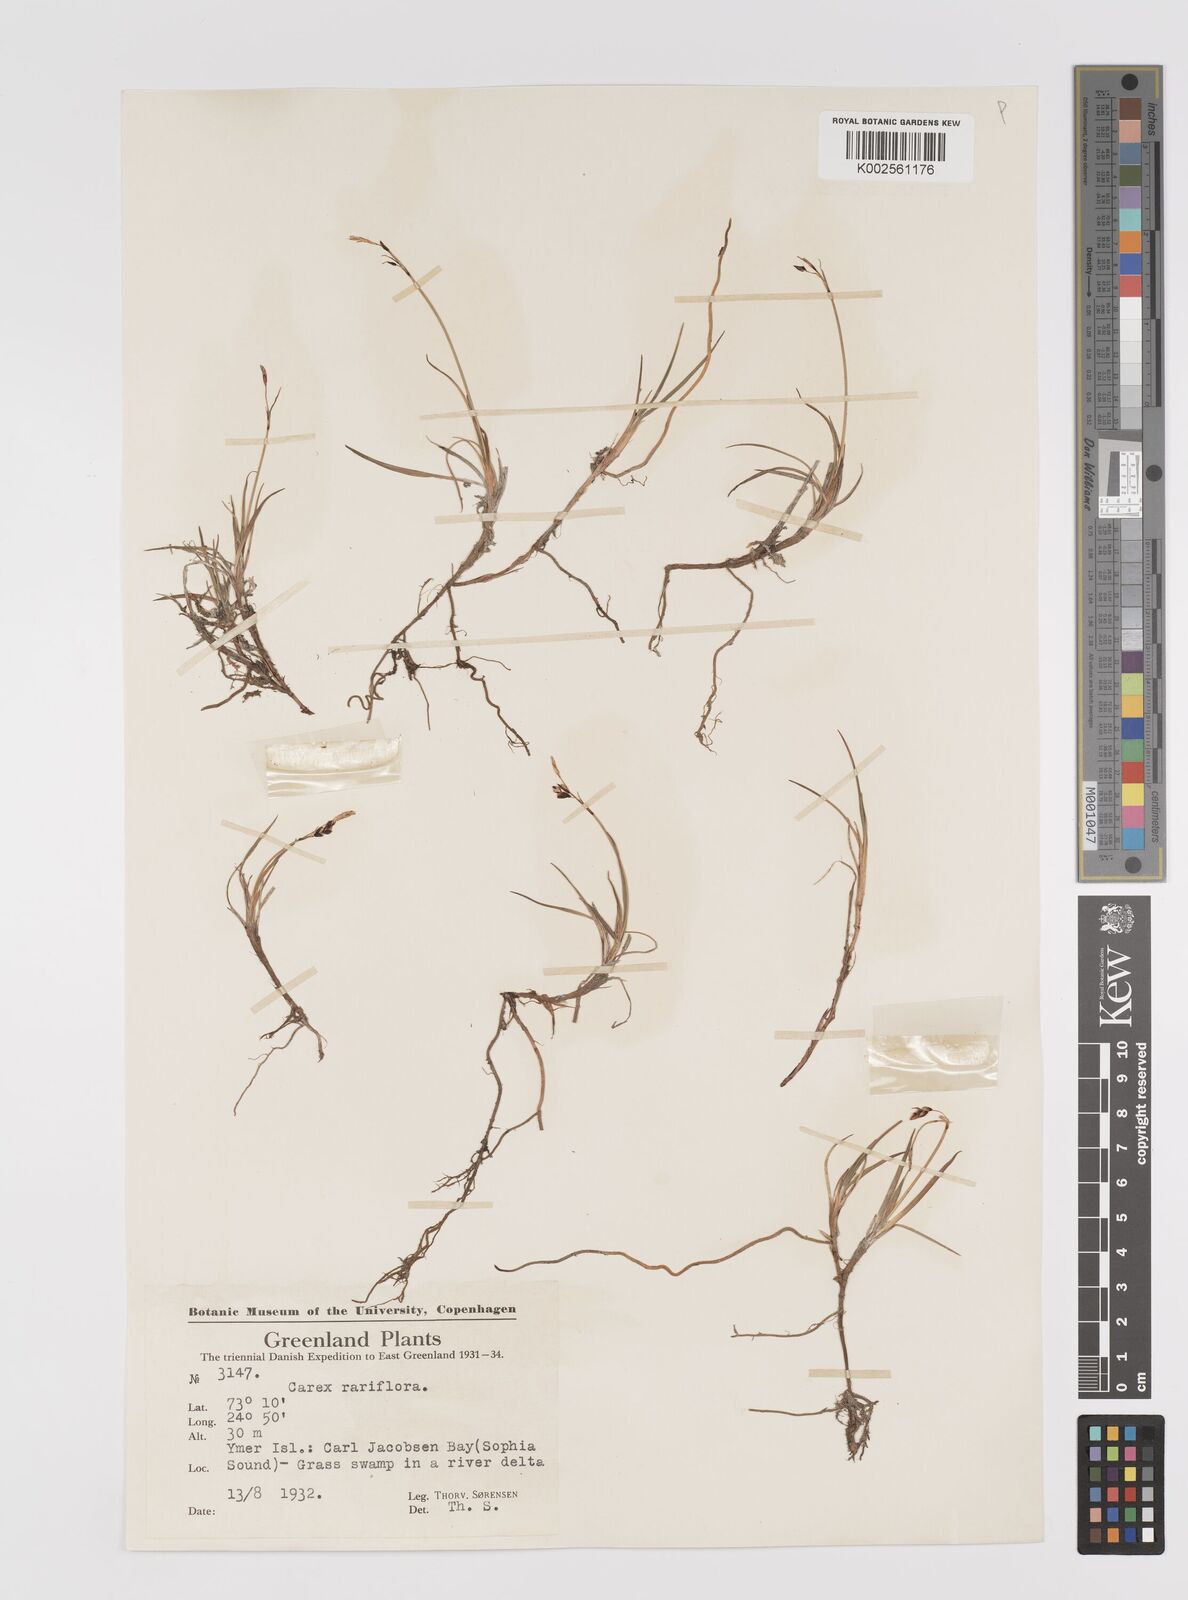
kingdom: Plantae
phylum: Tracheophyta
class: Liliopsida
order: Poales
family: Cyperaceae
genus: Carex
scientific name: Carex rariflora
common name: Loose-flowered alpine sedge
